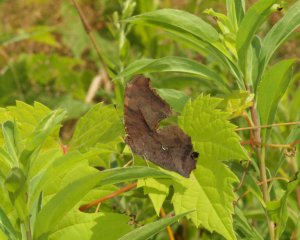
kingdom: Animalia
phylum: Arthropoda
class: Insecta
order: Lepidoptera
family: Nymphalidae
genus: Polygonia
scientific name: Polygonia interrogationis
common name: Question Mark
